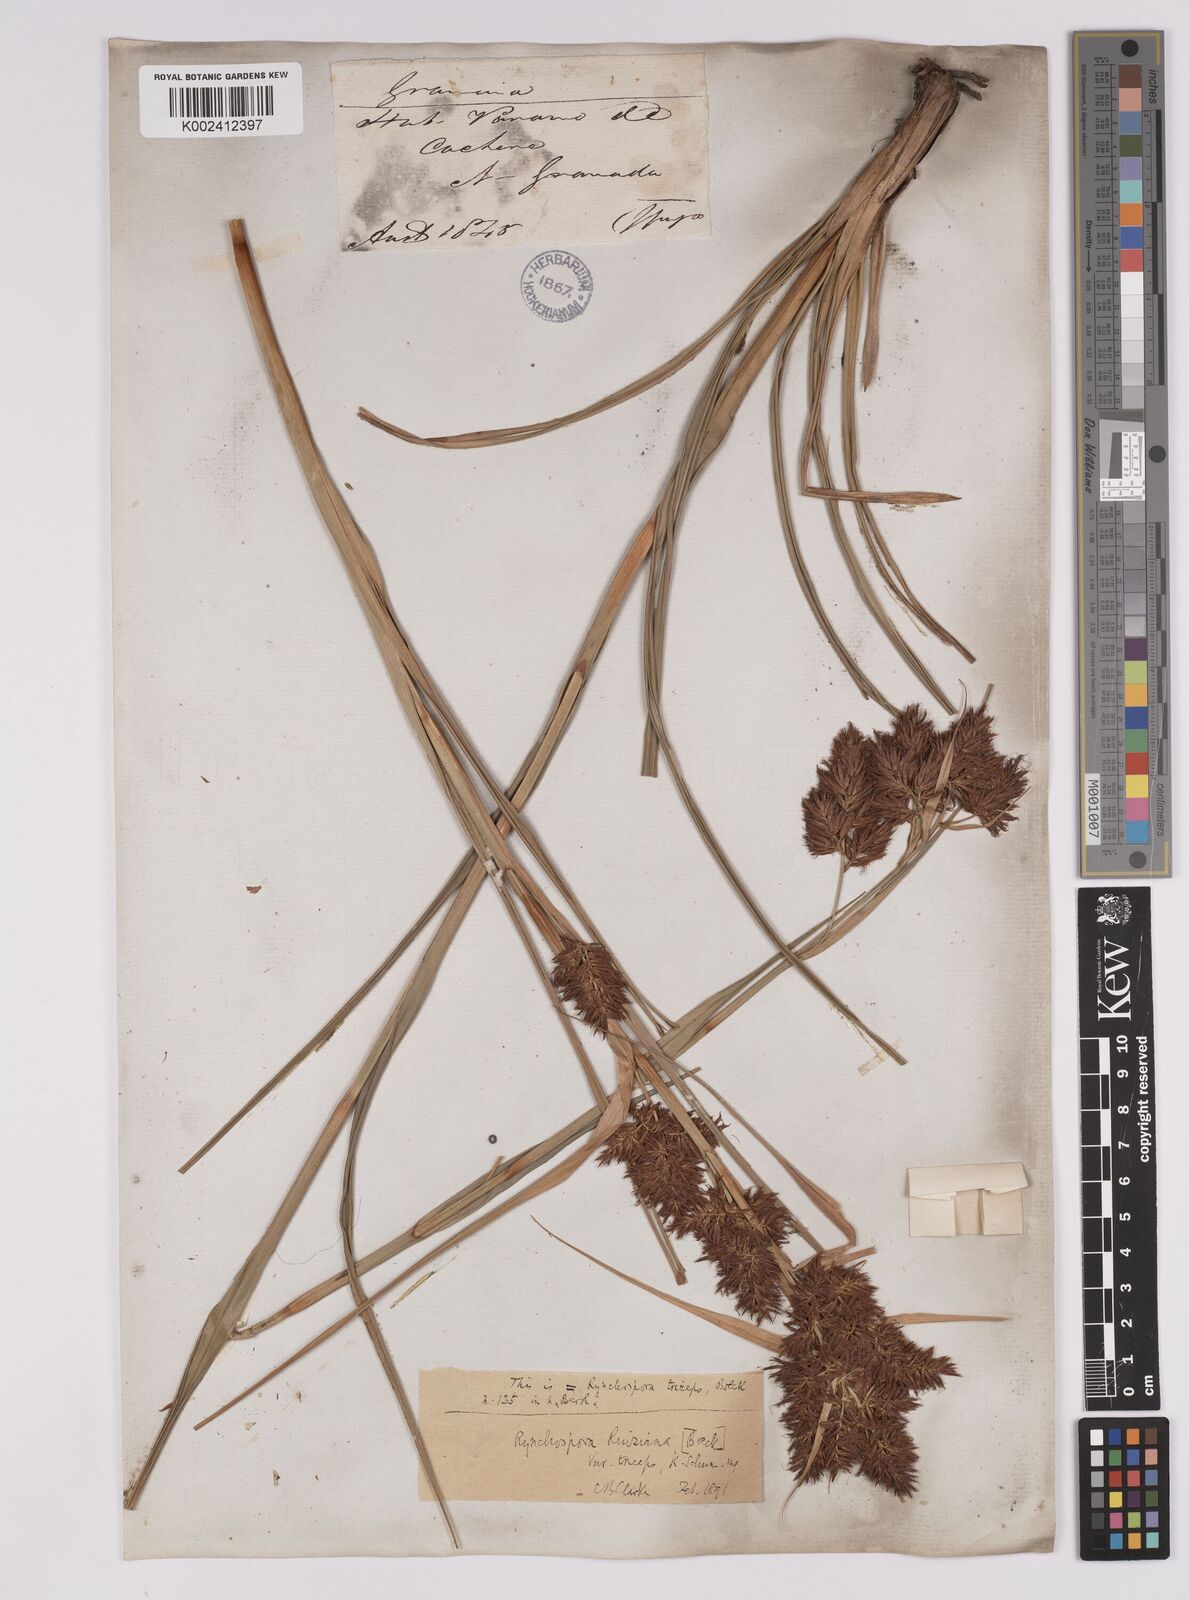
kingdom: Plantae
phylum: Tracheophyta
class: Liliopsida
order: Poales
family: Cyperaceae
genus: Rhynchospora
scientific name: Rhynchospora ruiziana
